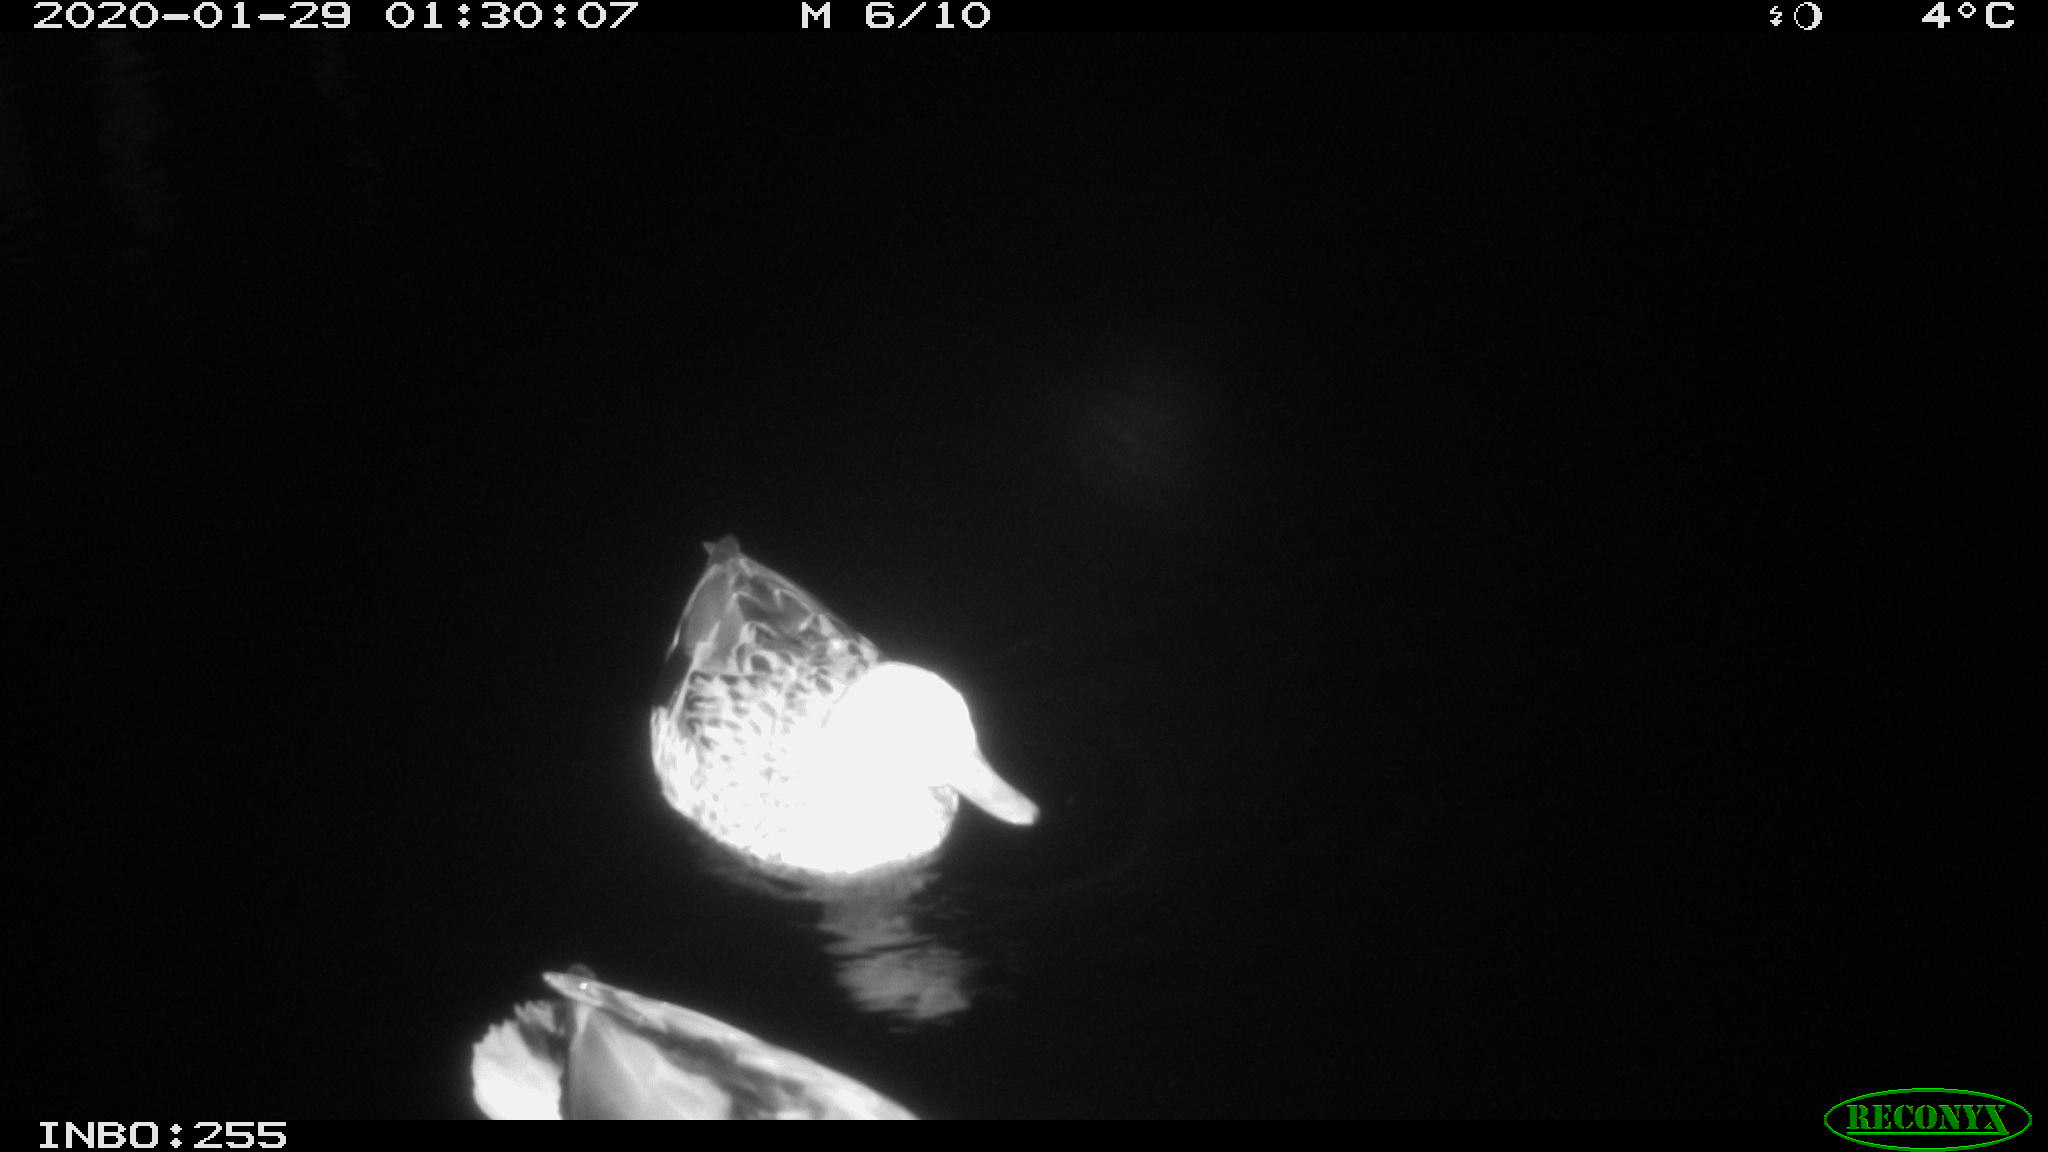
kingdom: Animalia
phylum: Chordata
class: Aves
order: Anseriformes
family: Anatidae
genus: Anas
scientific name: Anas platyrhynchos
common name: Mallard
